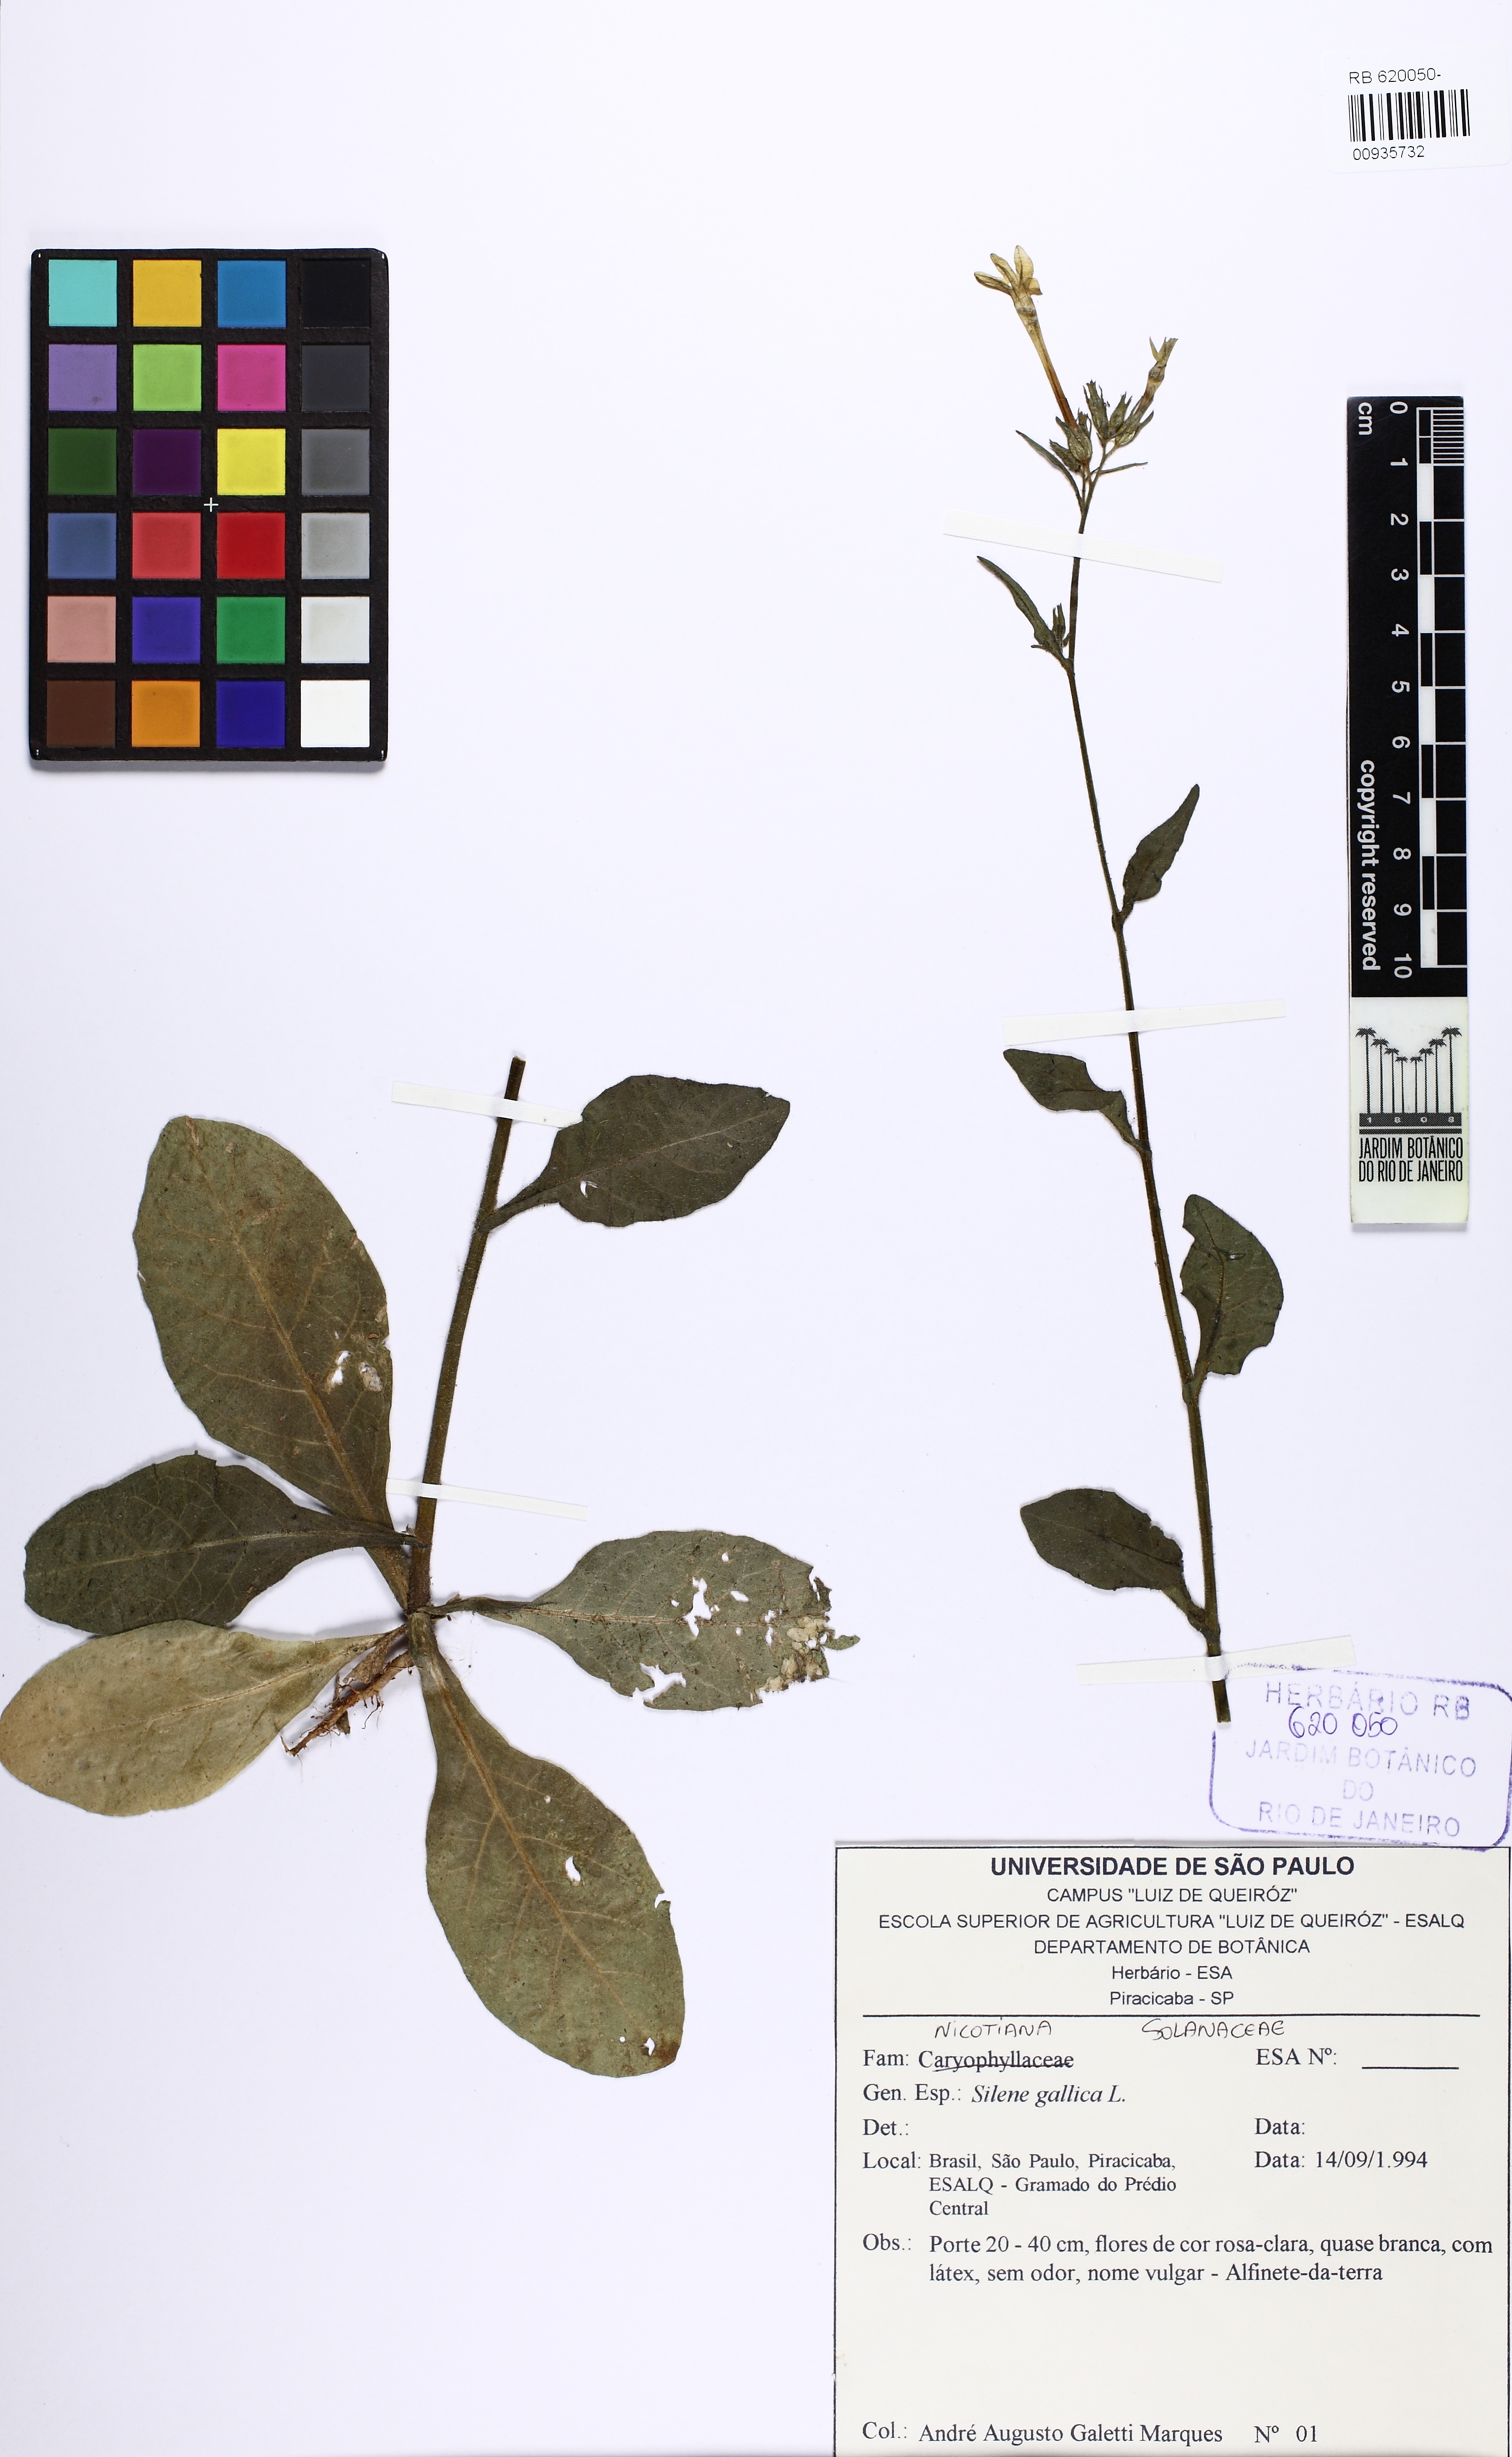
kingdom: Plantae
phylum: Tracheophyta
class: Magnoliopsida
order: Solanales
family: Solanaceae
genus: Nicotiana
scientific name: Nicotiana
